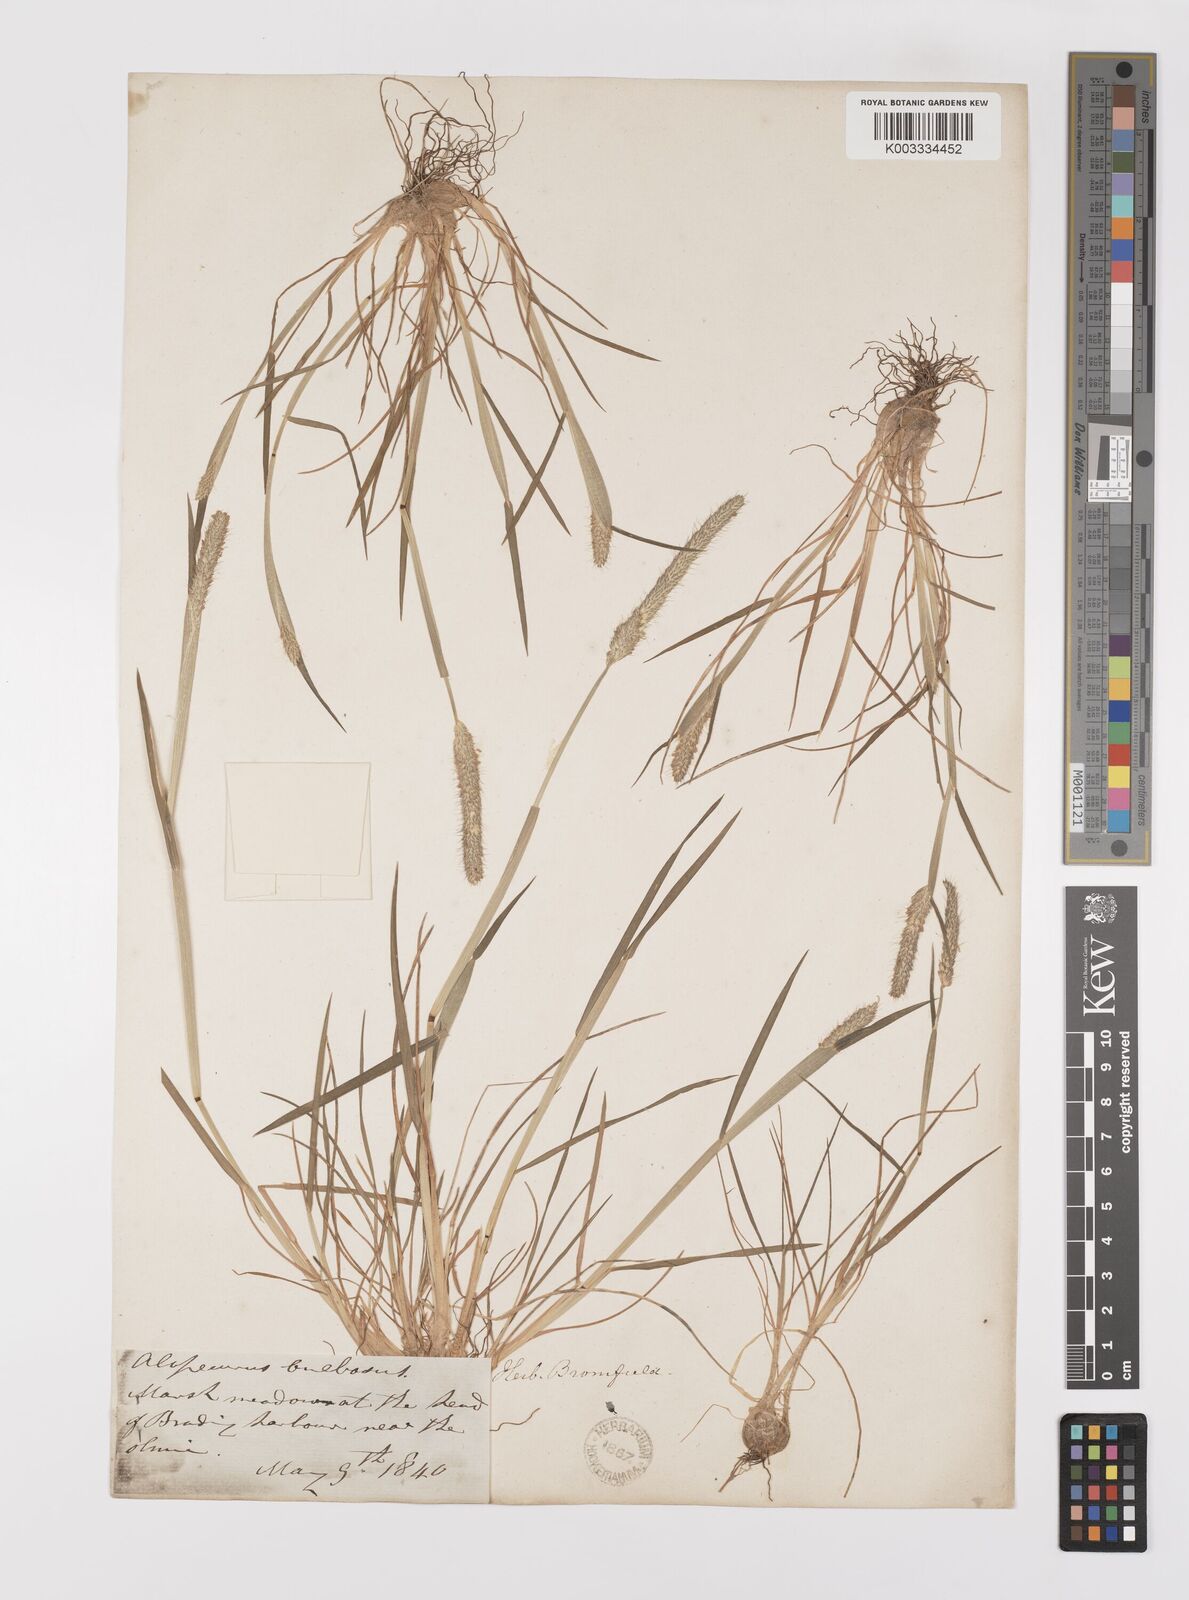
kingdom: Plantae
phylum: Tracheophyta
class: Liliopsida
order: Poales
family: Poaceae
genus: Alopecurus
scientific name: Alopecurus bulbosus
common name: Bulbous foxtail
